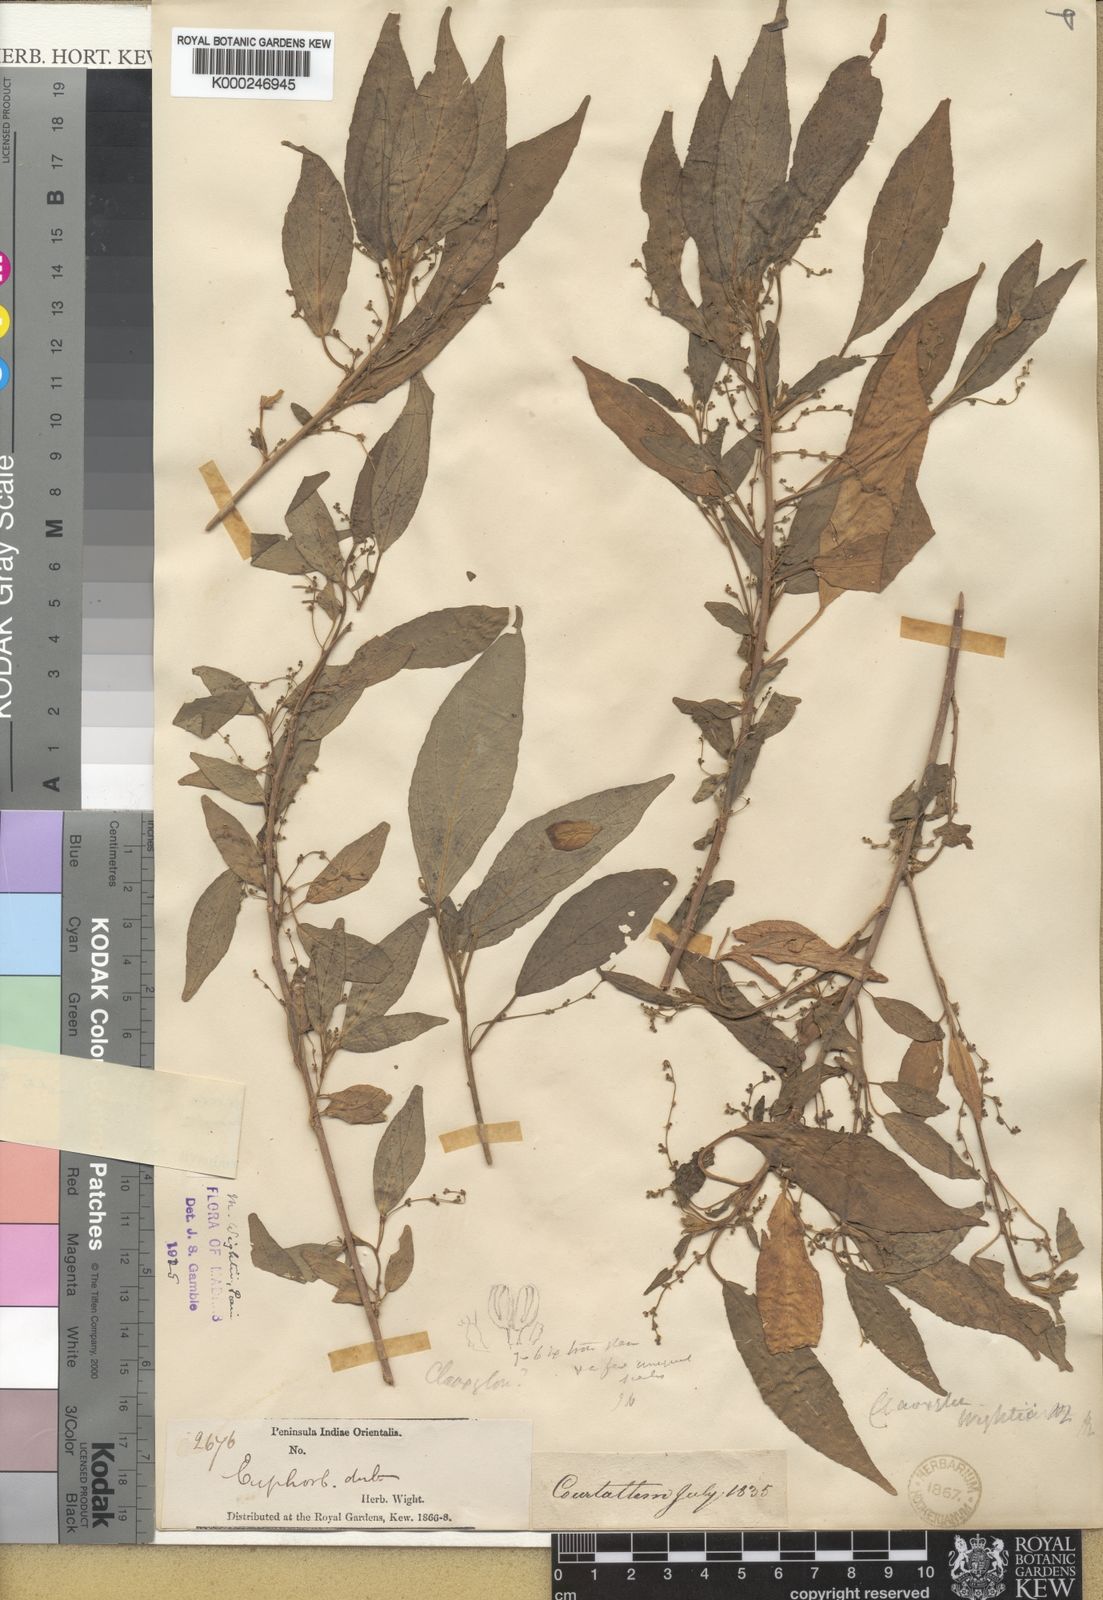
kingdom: Plantae
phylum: Tracheophyta
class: Magnoliopsida
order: Malpighiales
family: Euphorbiaceae
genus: Micrococca
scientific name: Micrococca wightii
